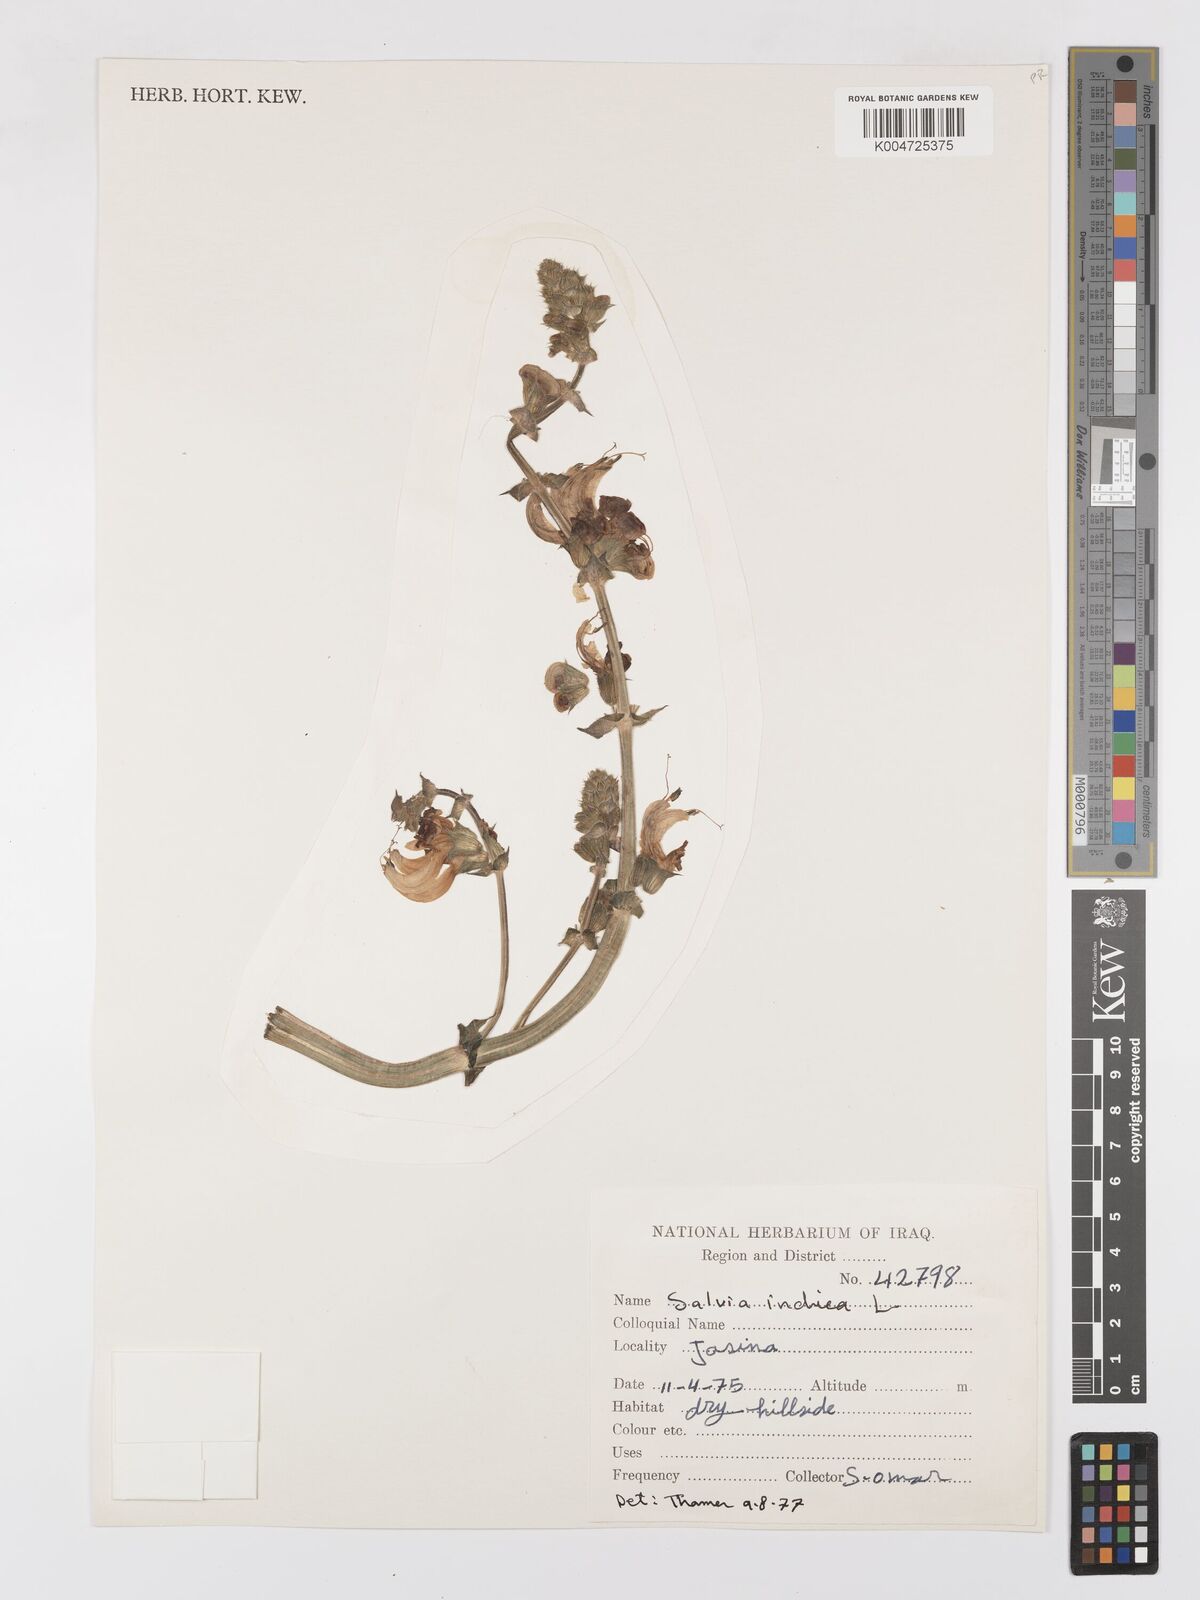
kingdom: Plantae
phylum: Tracheophyta
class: Magnoliopsida
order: Lamiales
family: Lamiaceae
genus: Salvia
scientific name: Salvia indica
